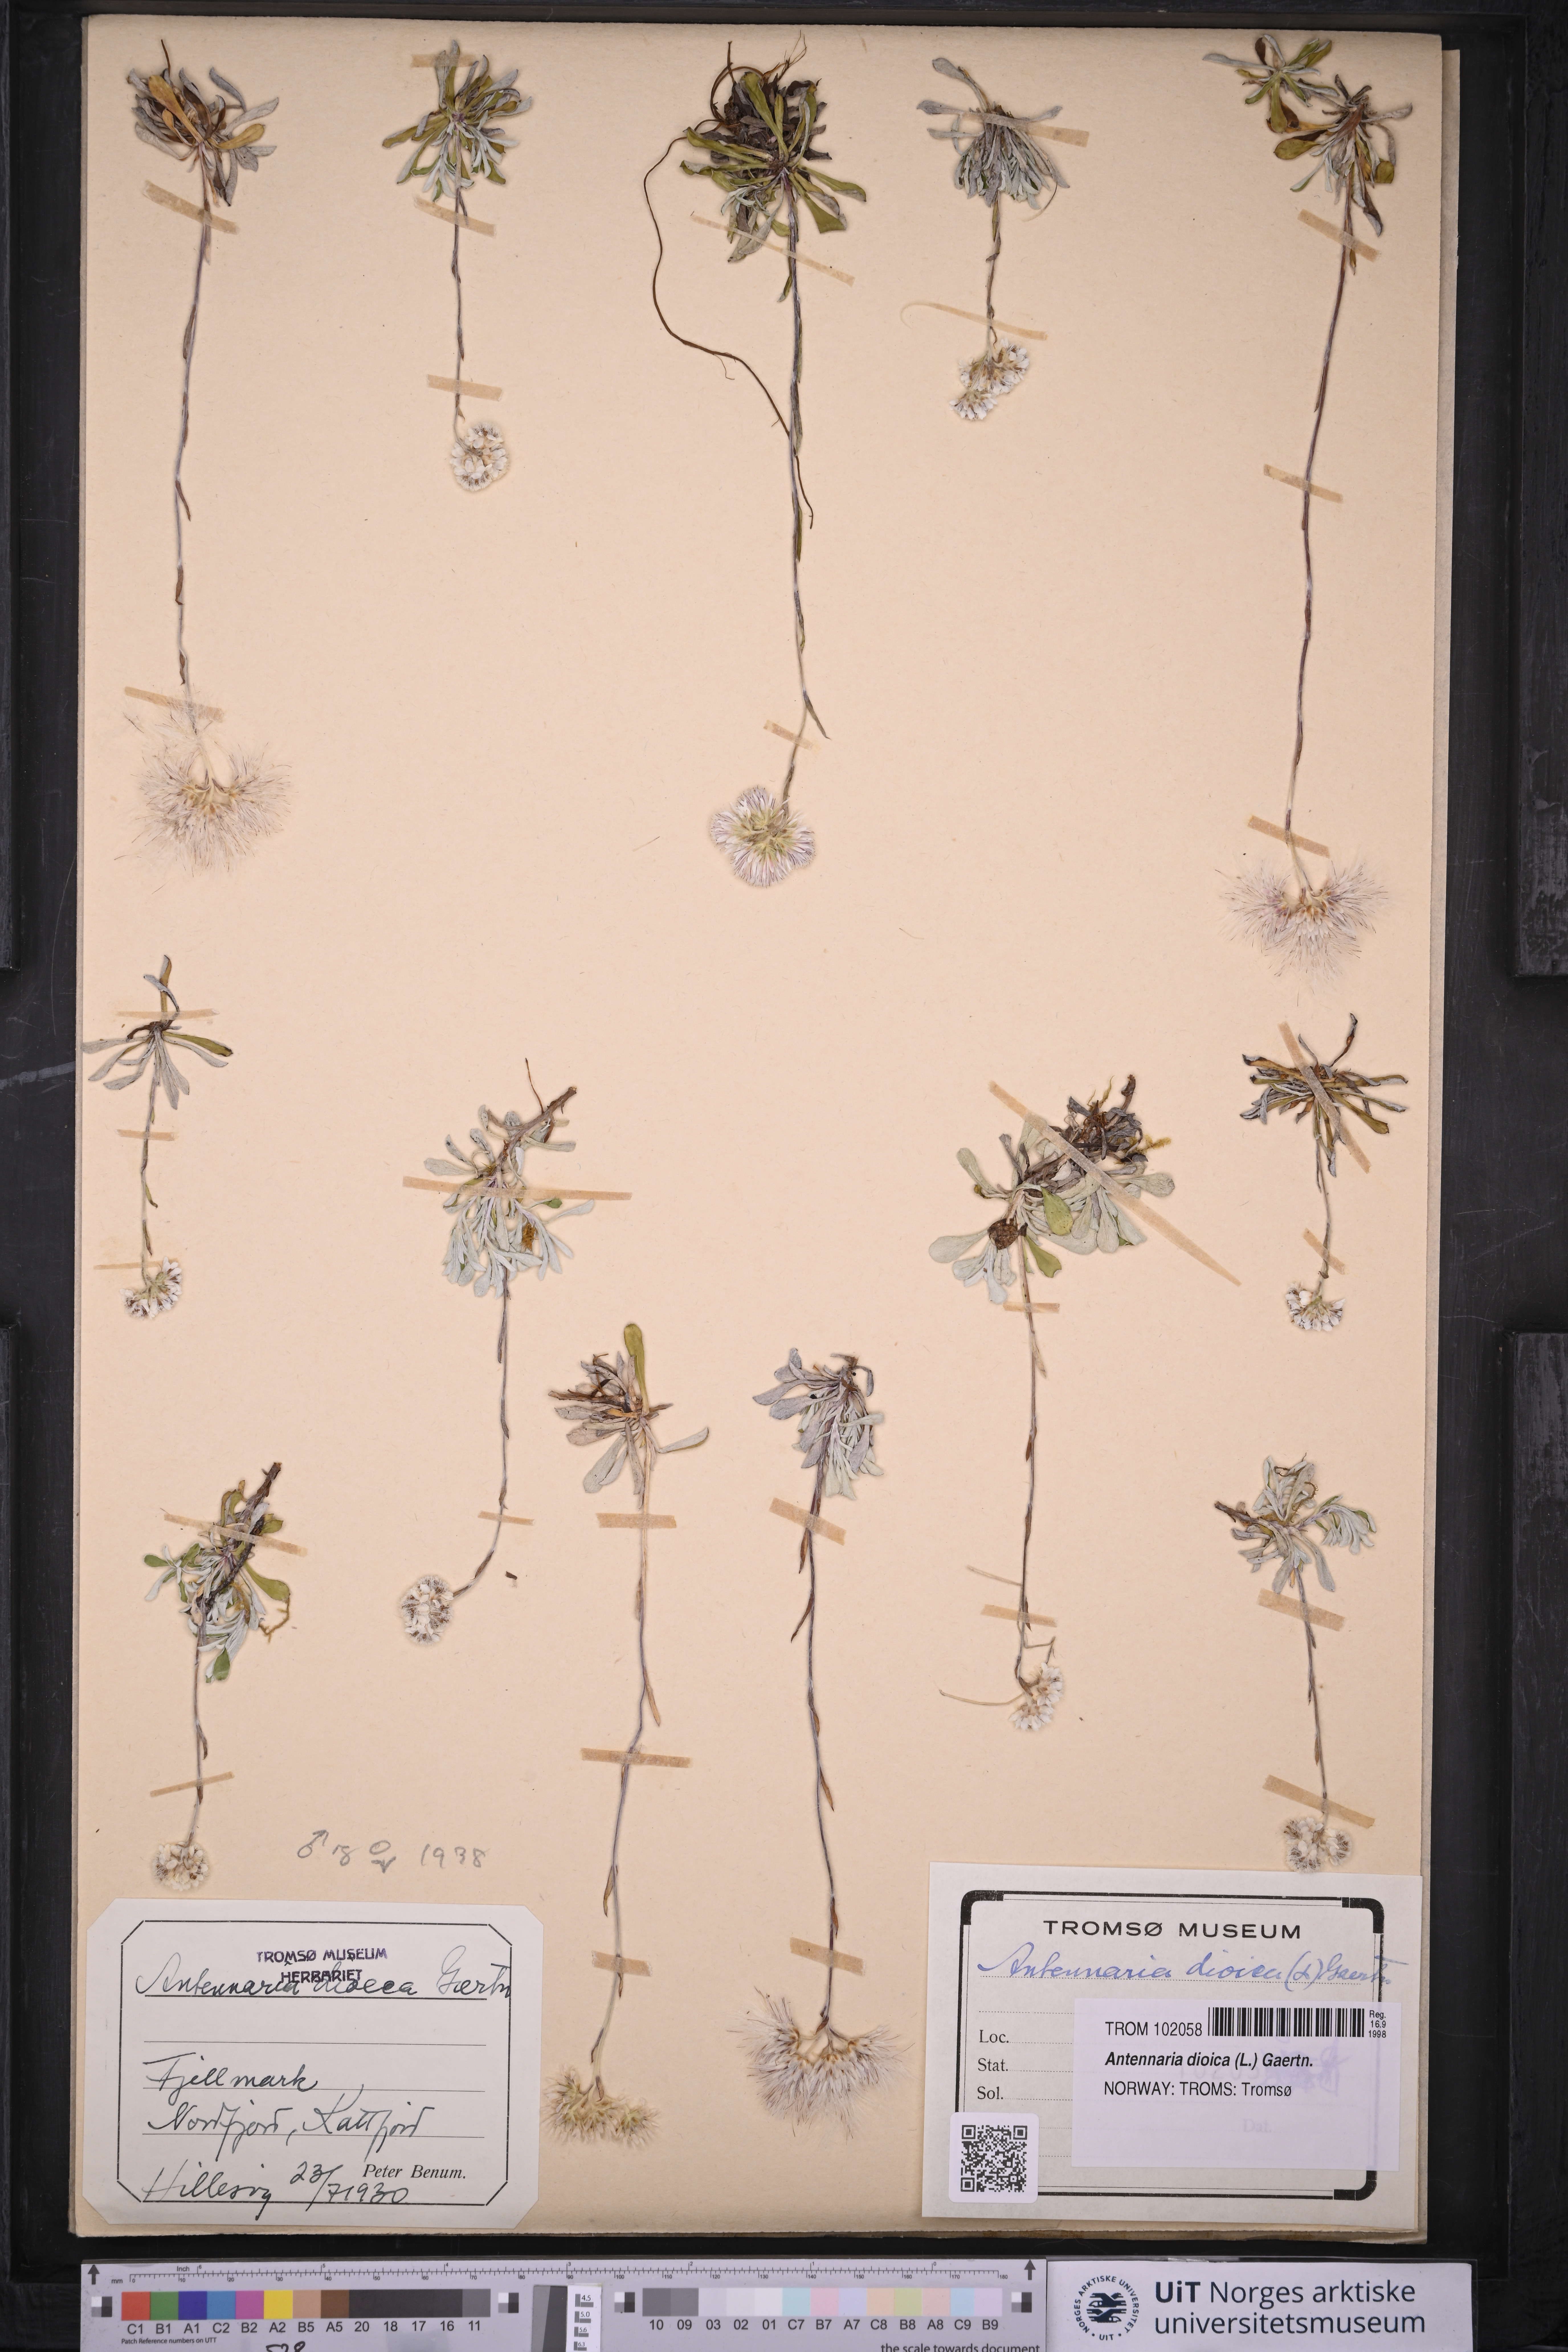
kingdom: Plantae
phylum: Tracheophyta
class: Magnoliopsida
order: Asterales
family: Asteraceae
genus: Antennaria
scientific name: Antennaria dioica
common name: Mountain everlasting
